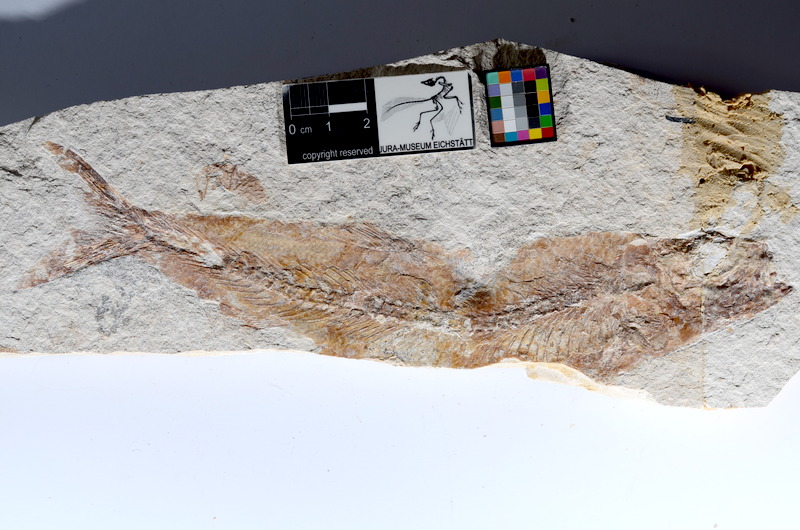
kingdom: Animalia
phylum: Chordata
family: Ascalaboidae
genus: Tharsis
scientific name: Tharsis dubius
